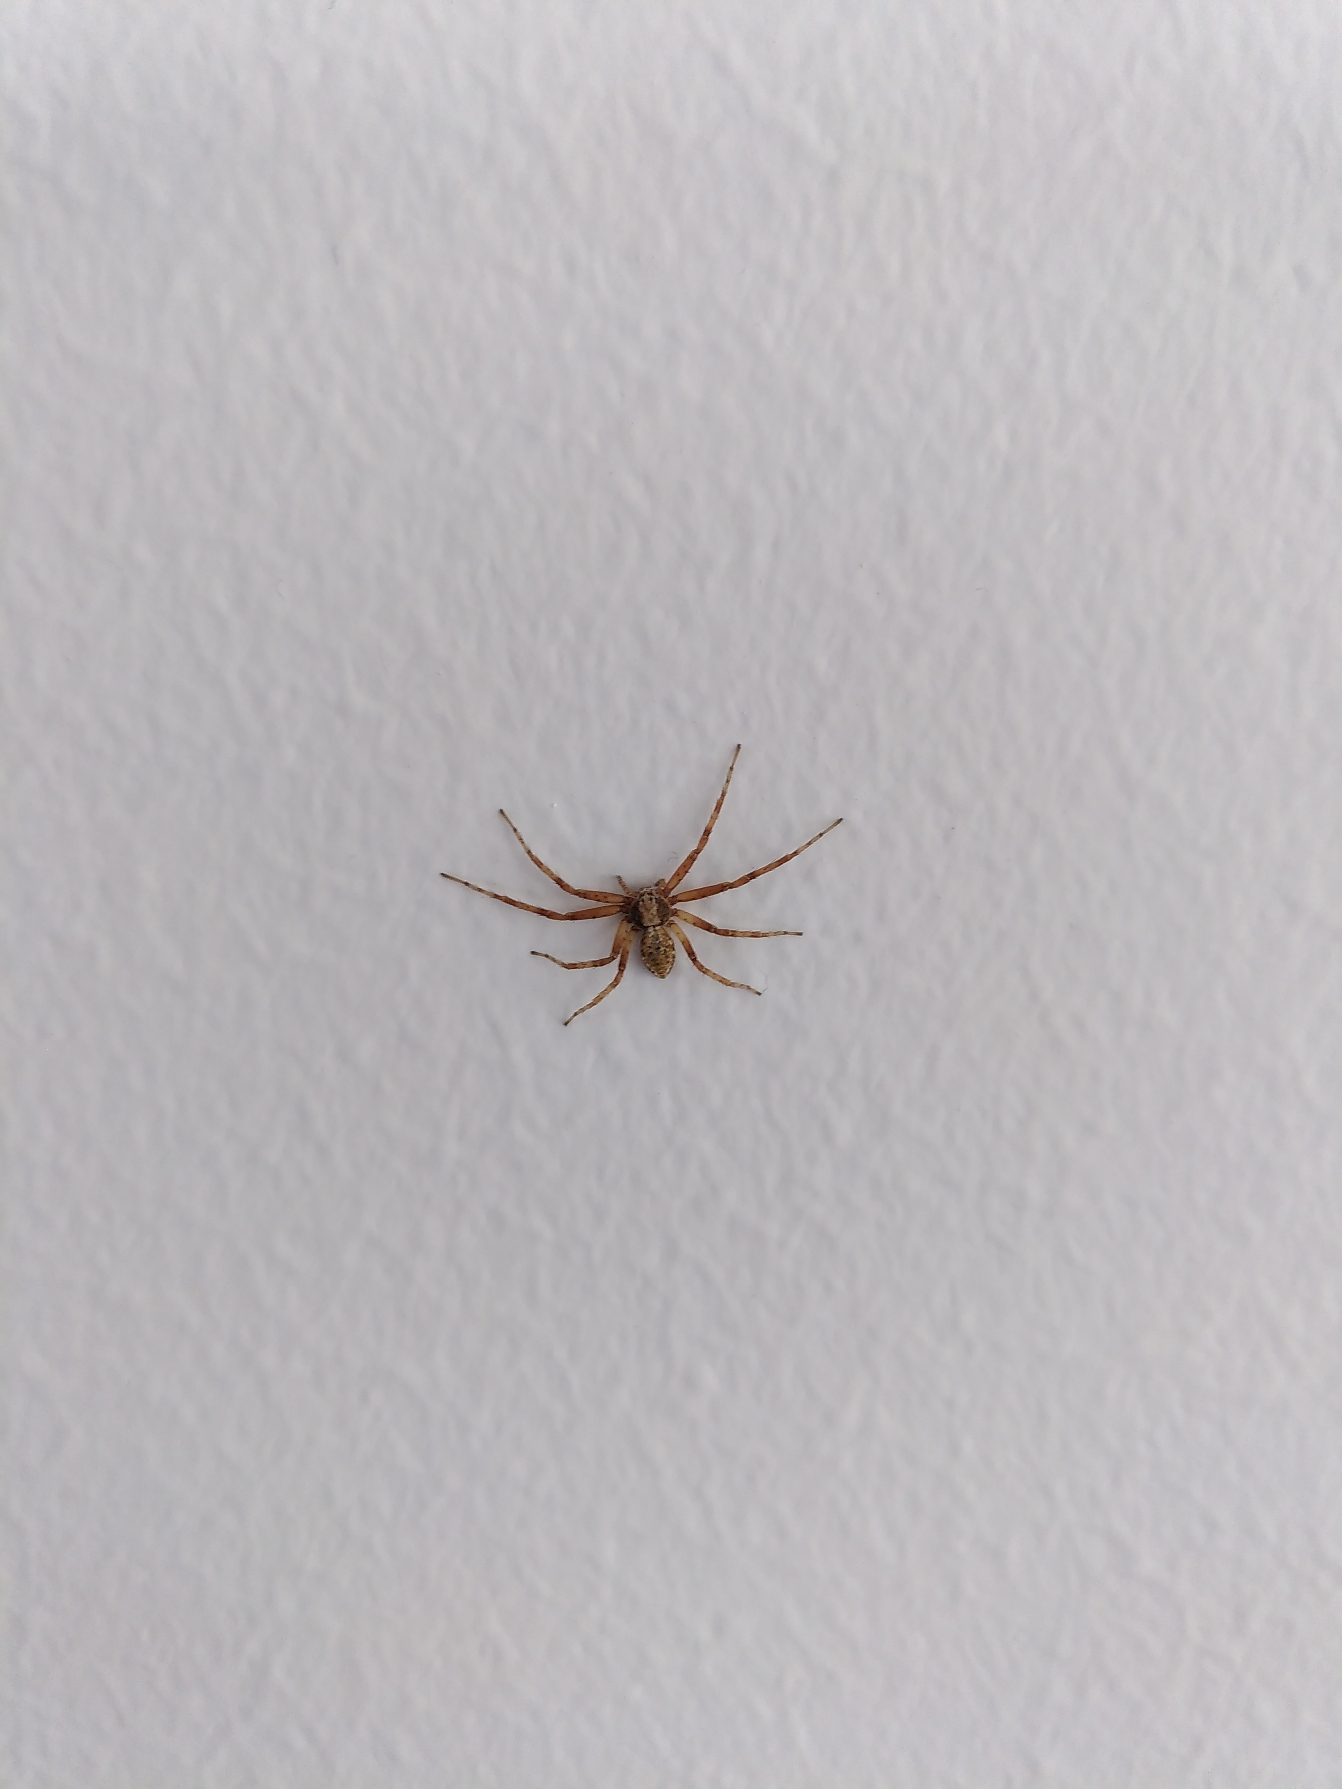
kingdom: Animalia
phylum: Arthropoda
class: Arachnida
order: Araneae
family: Philodromidae
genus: Philodromus
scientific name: Philodromus aureolus
